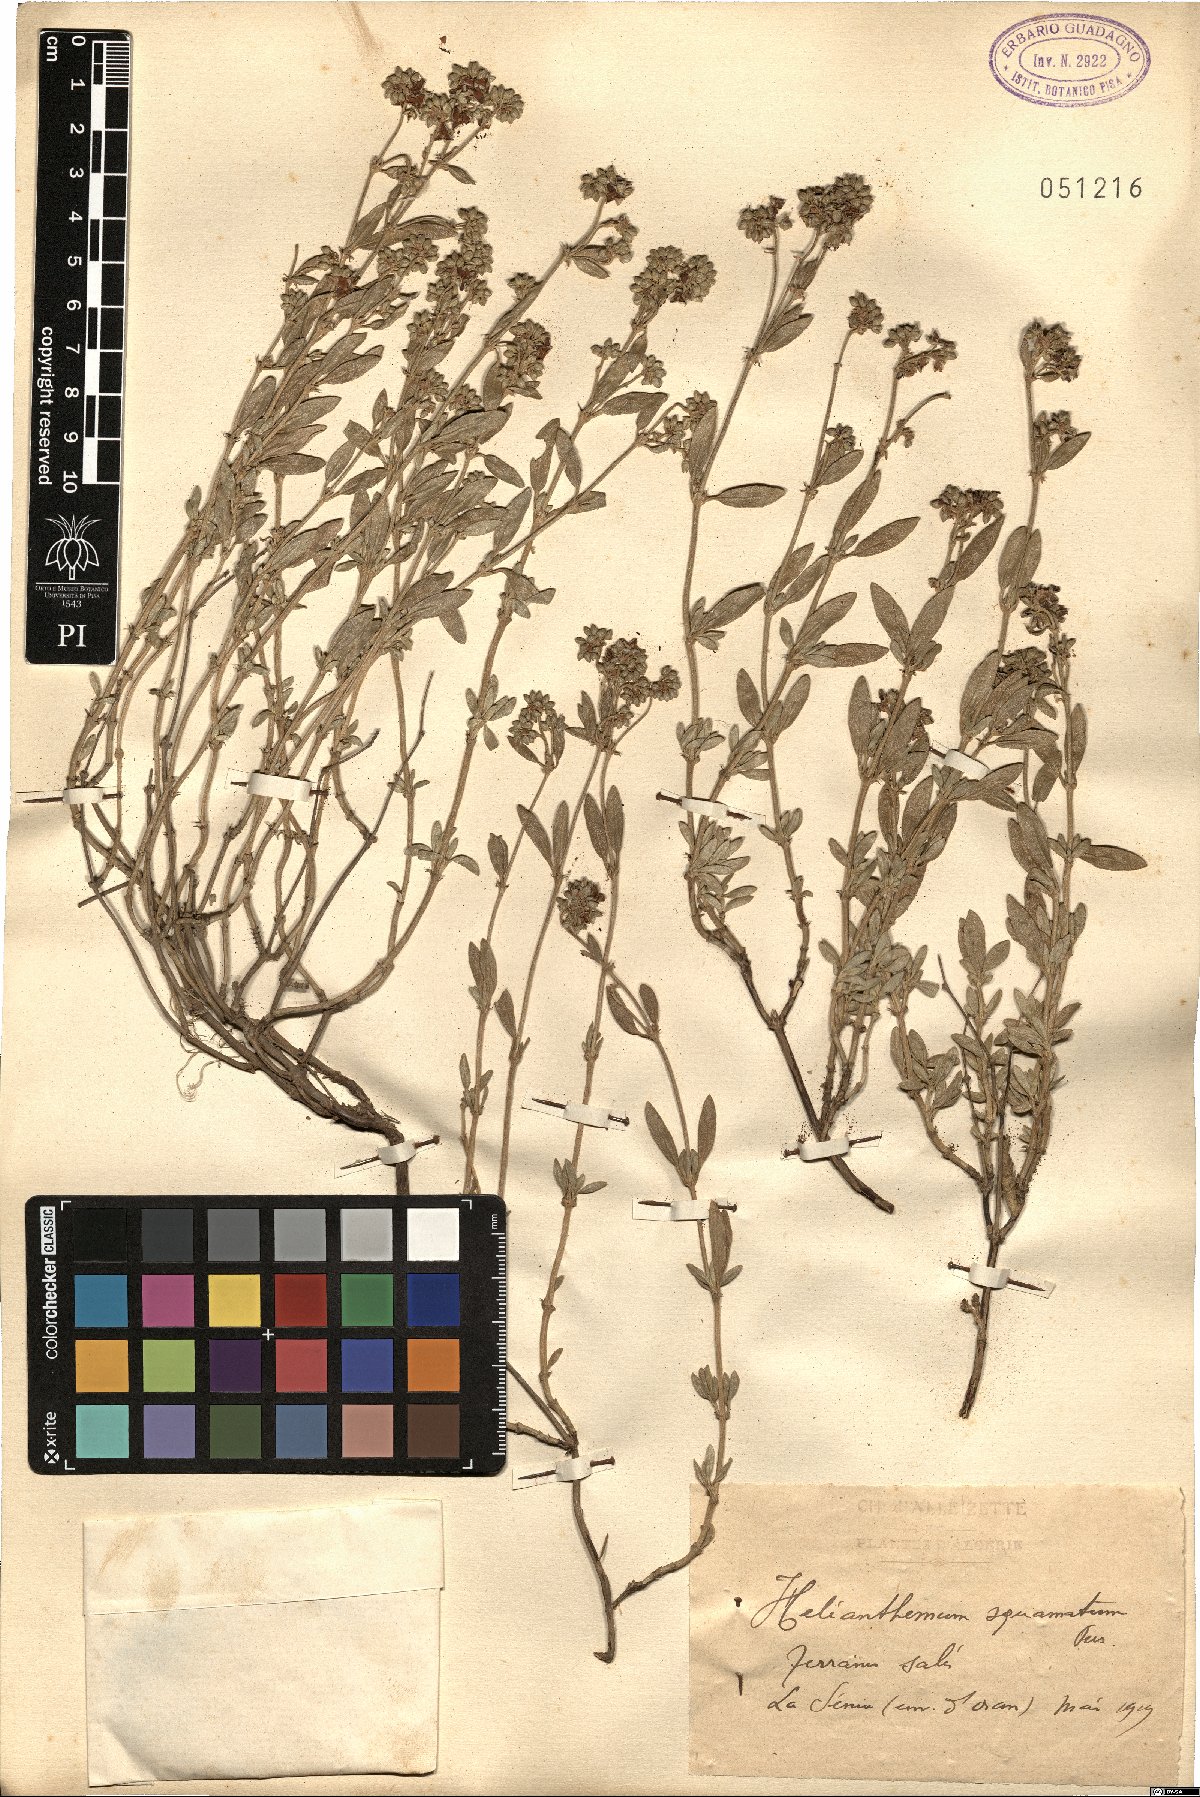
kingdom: Plantae
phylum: Tracheophyta
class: Magnoliopsida
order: Malvales
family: Cistaceae
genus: Helianthemum
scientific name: Helianthemum squamatum
